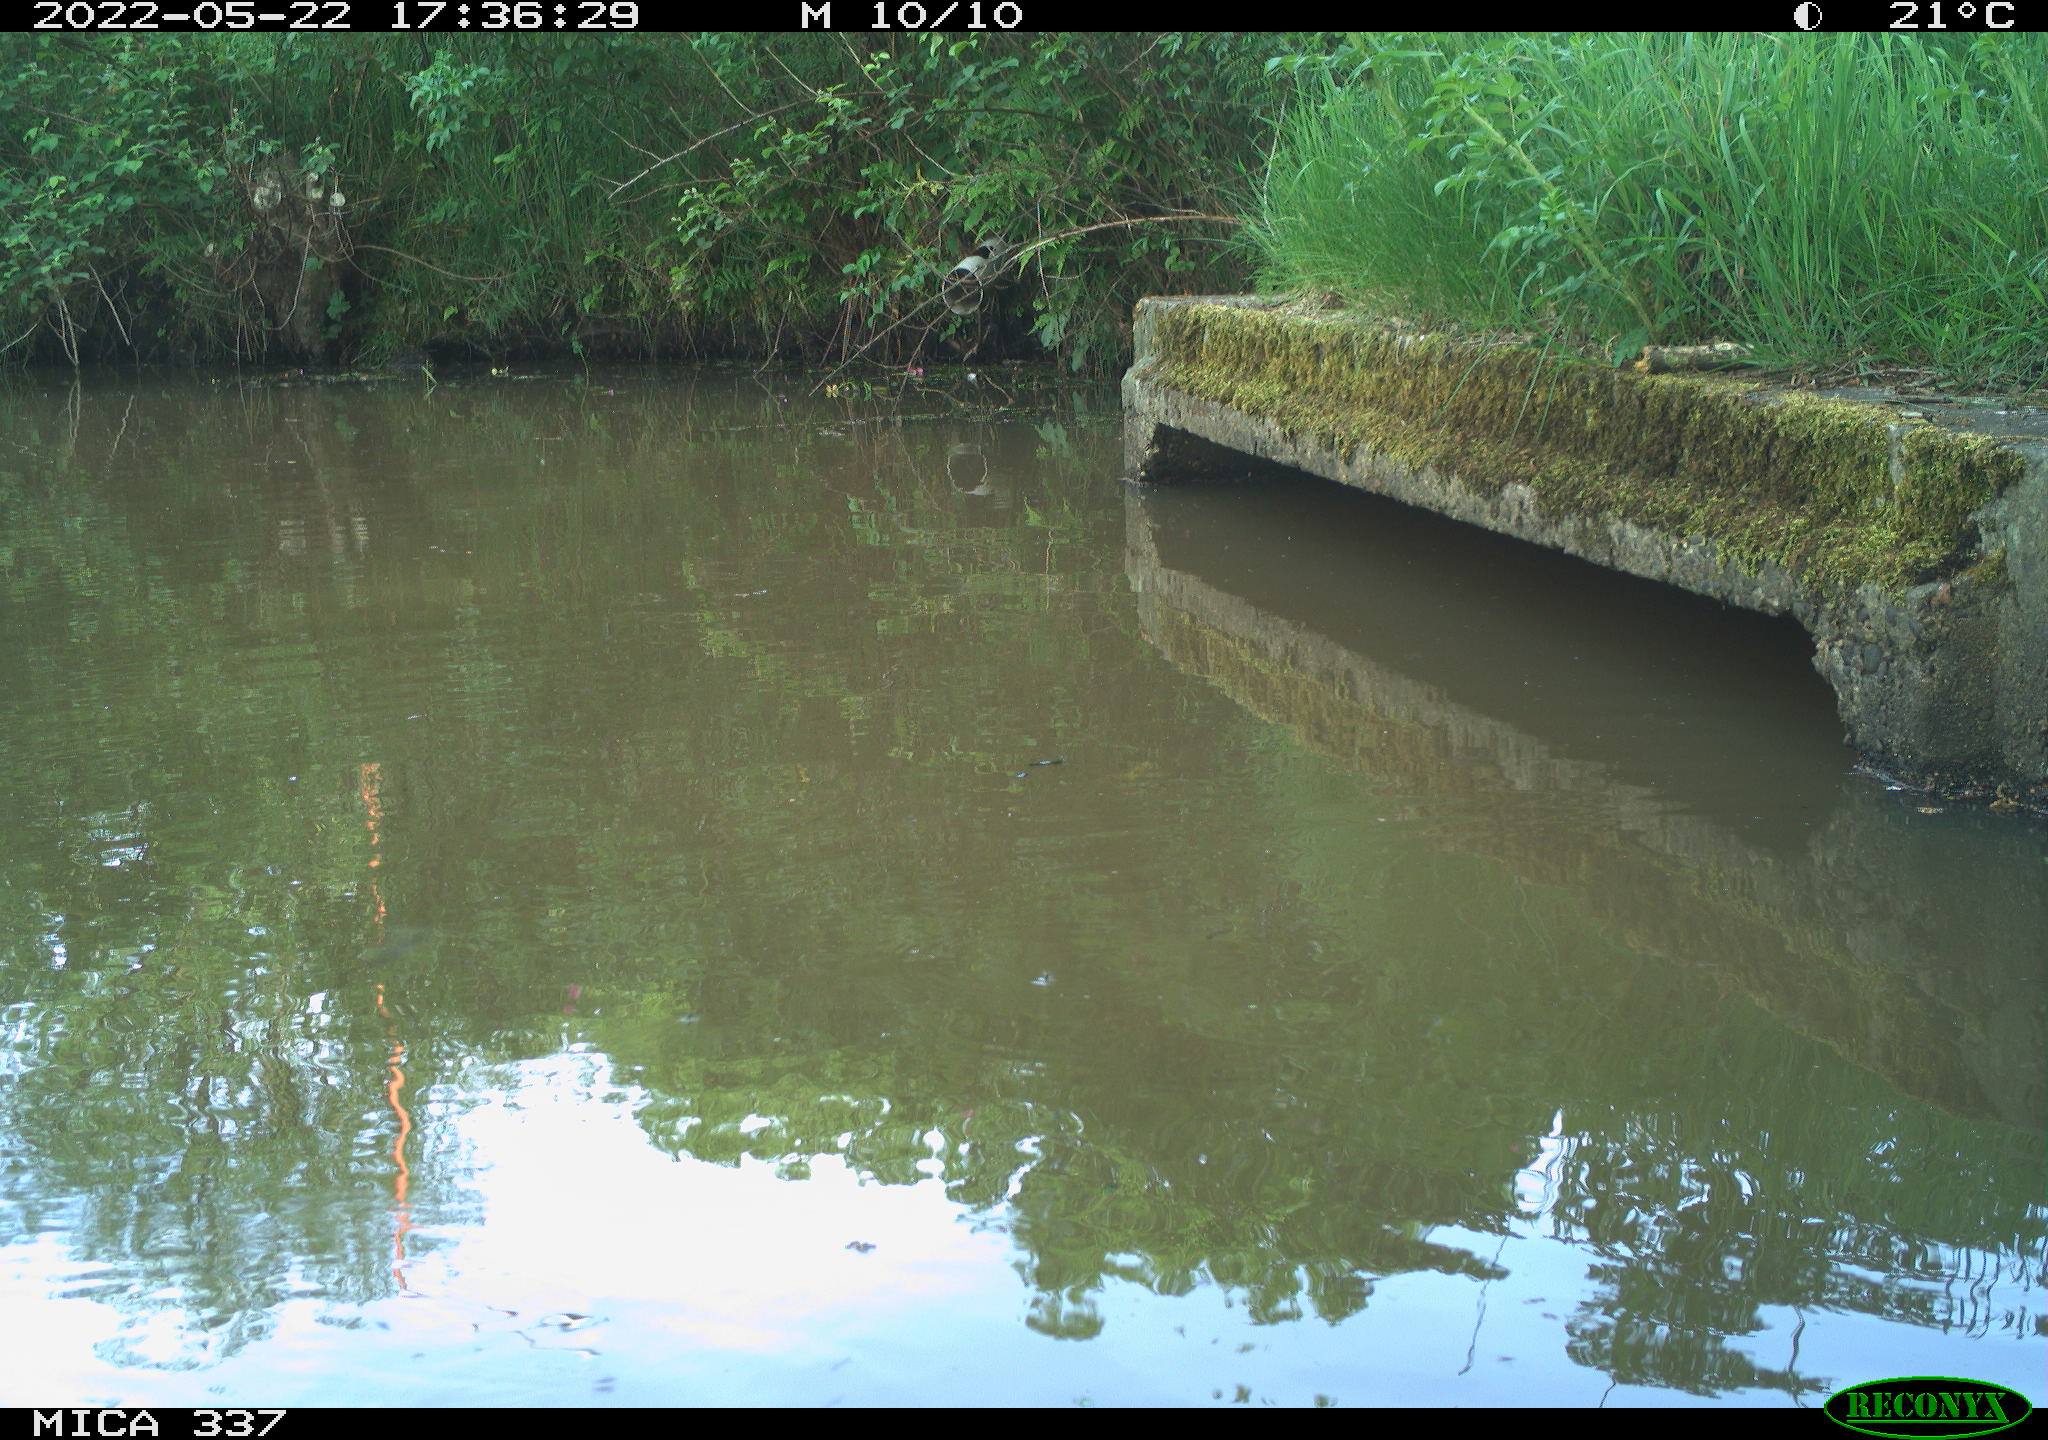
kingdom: Animalia
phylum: Chordata
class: Aves
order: Gruiformes
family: Rallidae
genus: Gallinula
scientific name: Gallinula chloropus
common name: Common moorhen
